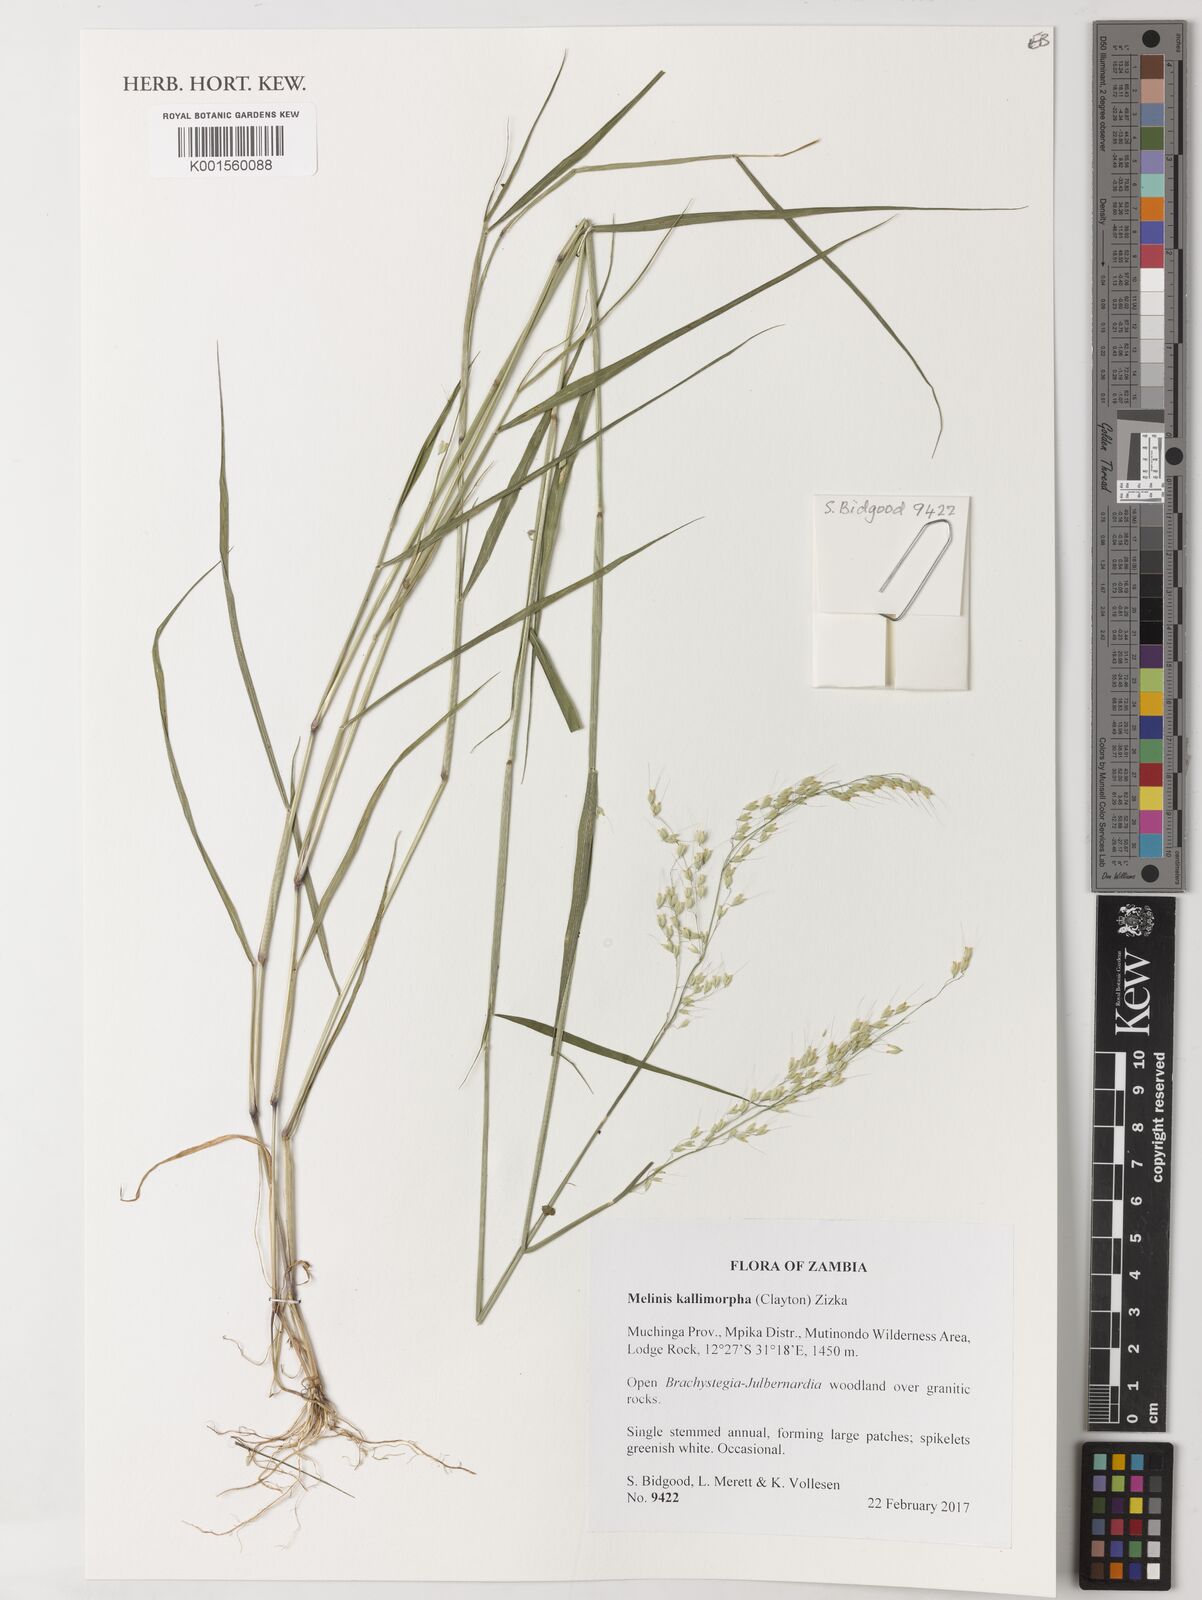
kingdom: Plantae
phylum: Tracheophyta
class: Liliopsida
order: Poales
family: Poaceae
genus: Melinis
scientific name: Melinis kallimorpha
